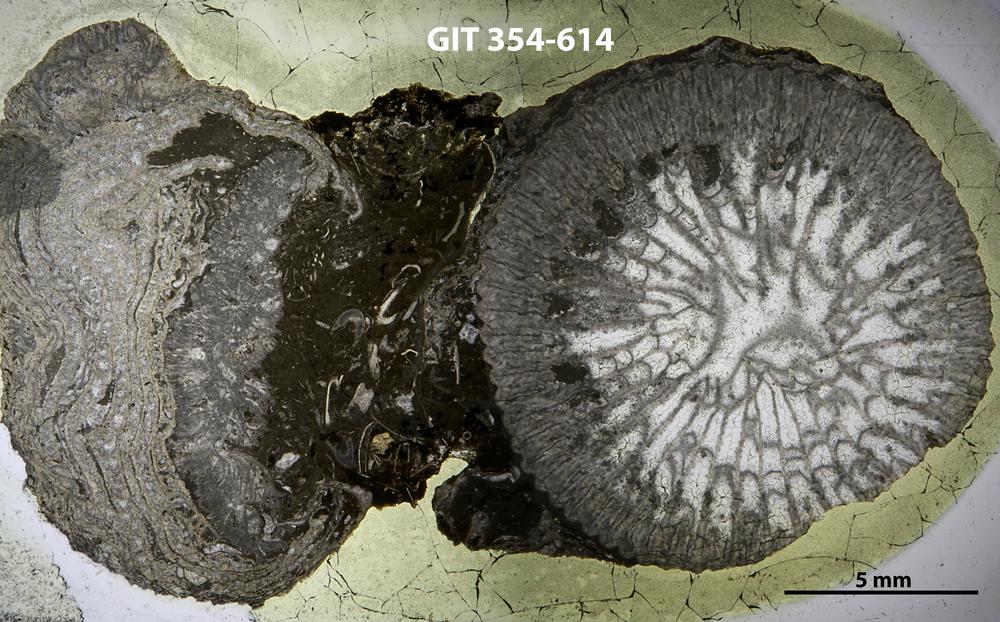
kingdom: Animalia
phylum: Porifera
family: Stromatoporellidae
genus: Simplexodictyon
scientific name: Simplexodictyon
